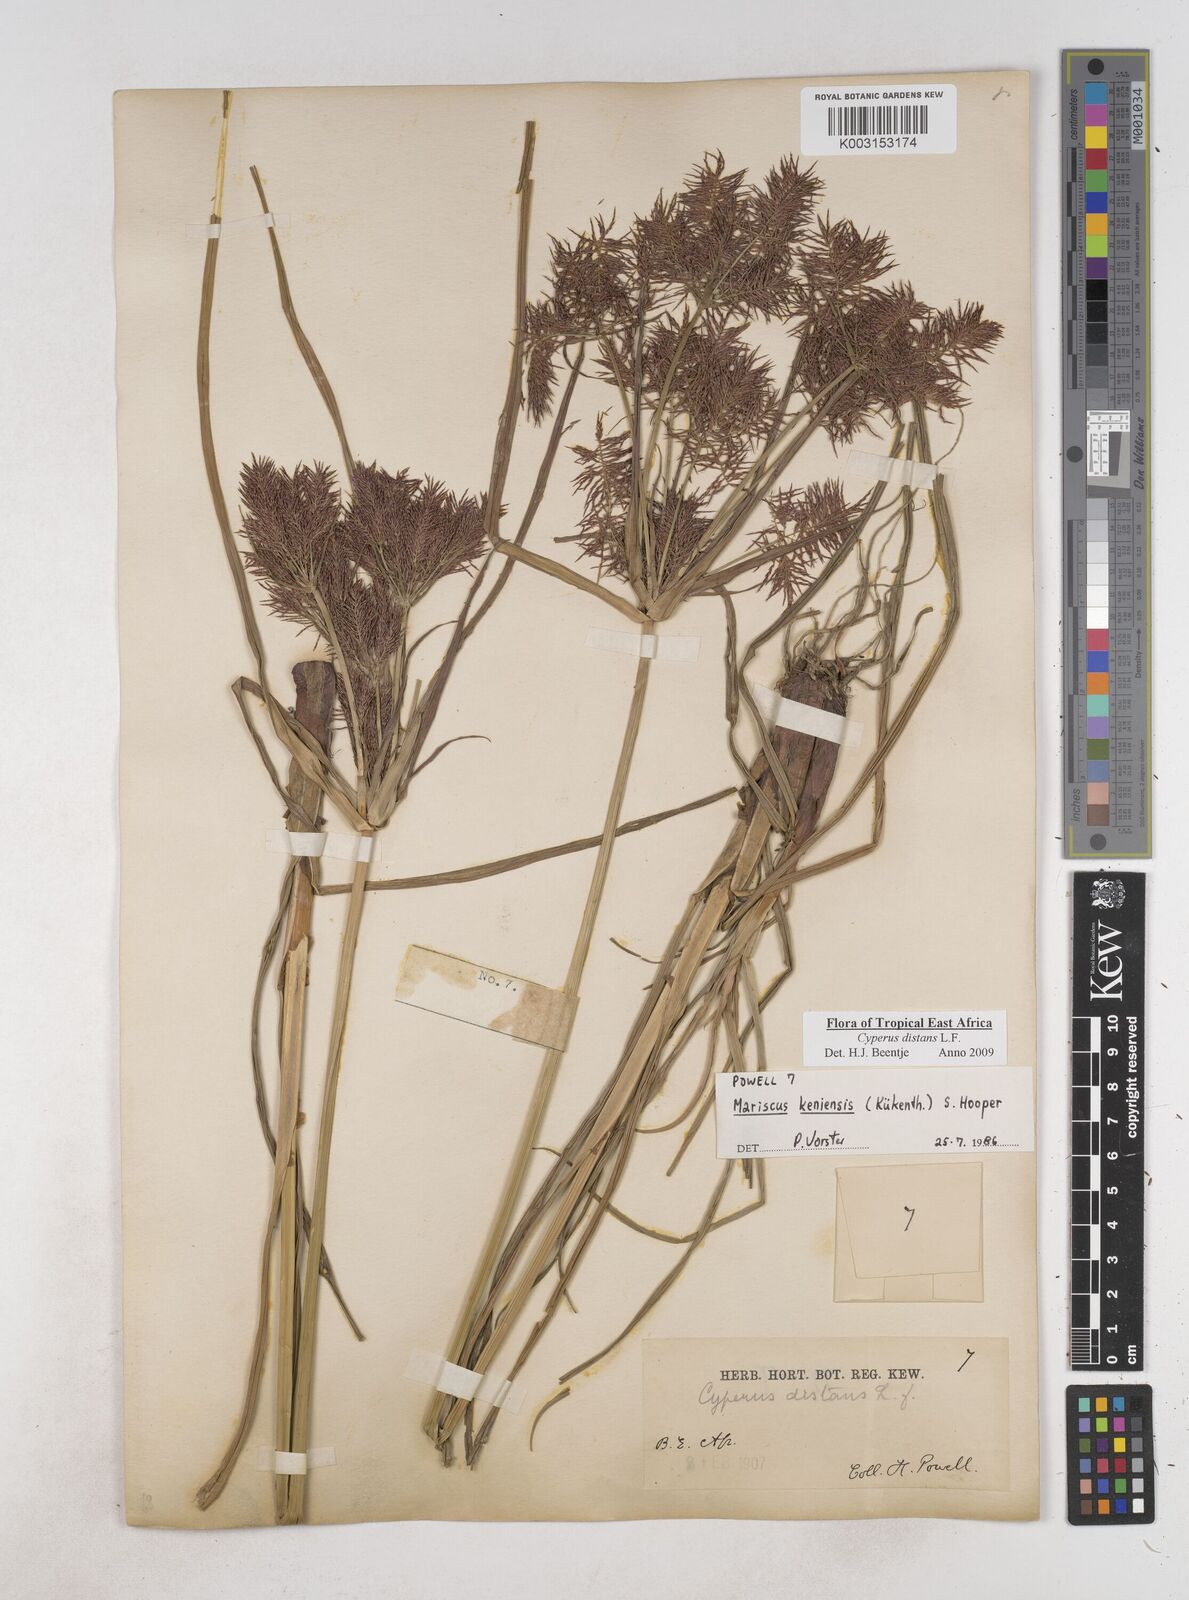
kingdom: Plantae
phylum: Tracheophyta
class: Liliopsida
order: Poales
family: Cyperaceae
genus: Cyperus
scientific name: Cyperus distans
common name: Slender cyperus
